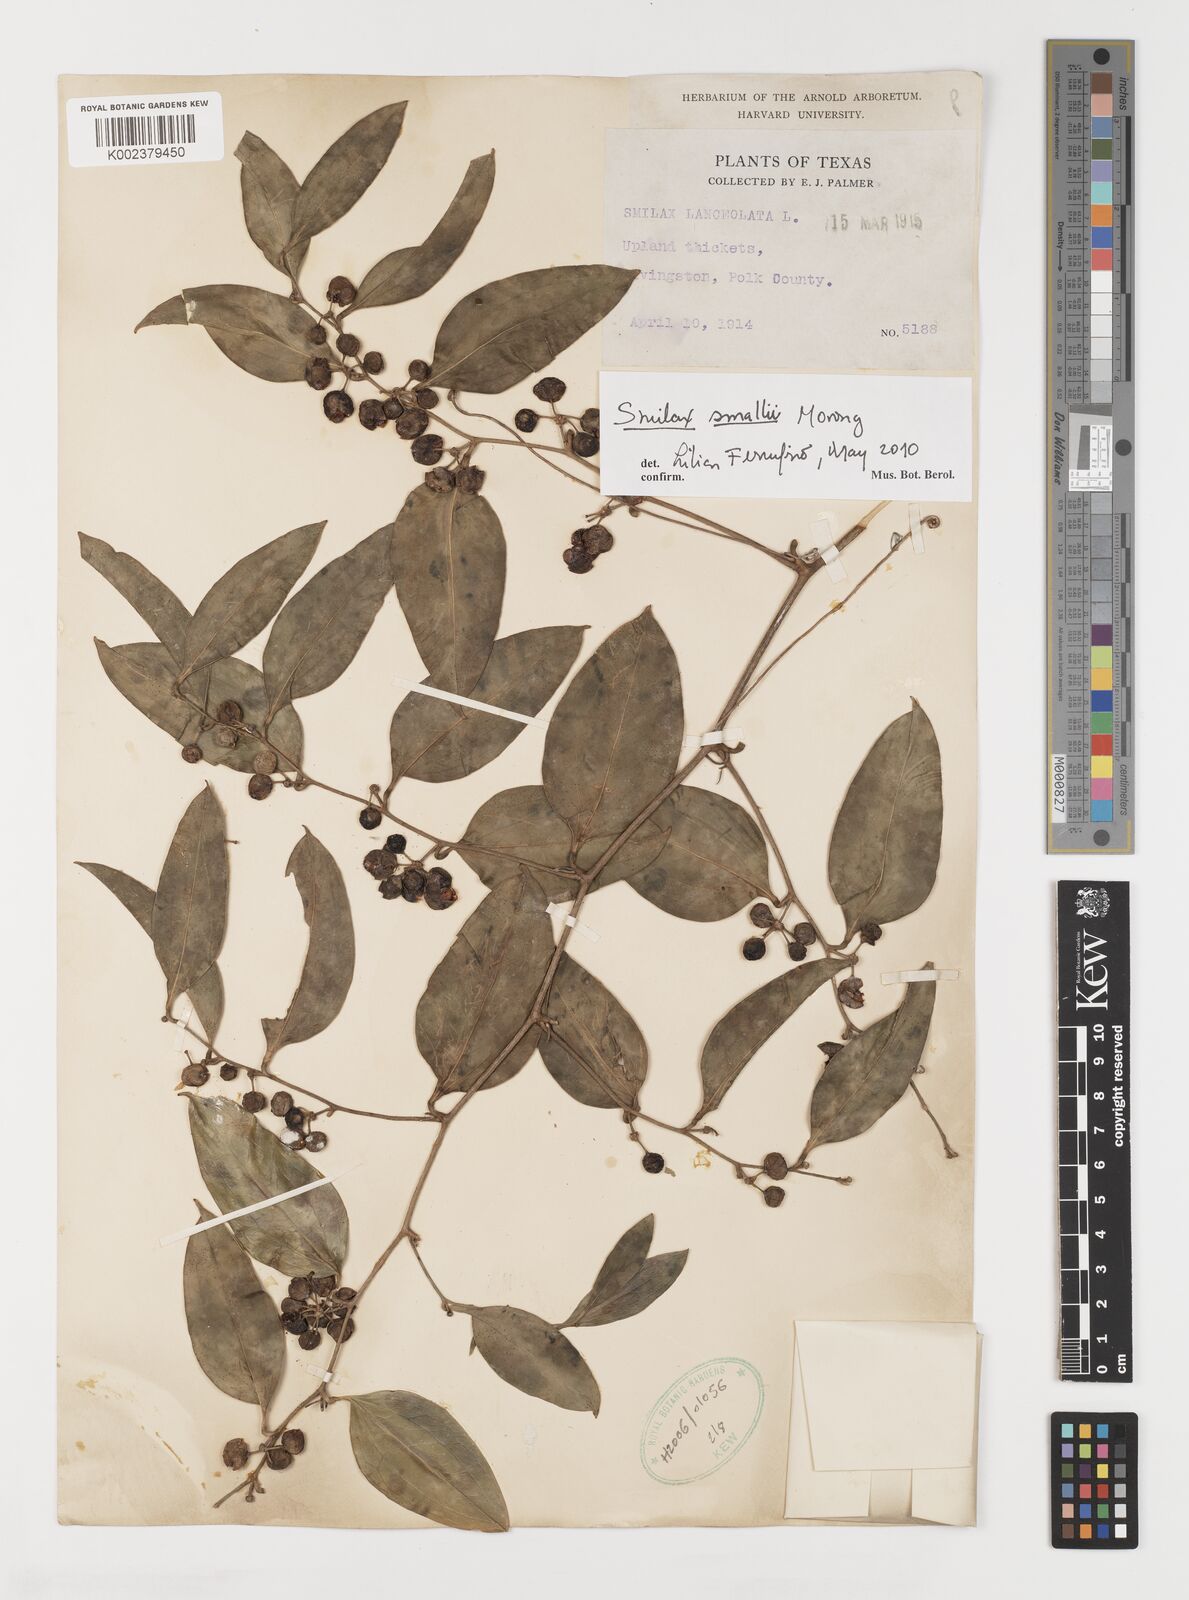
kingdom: Plantae
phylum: Tracheophyta
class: Liliopsida
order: Liliales
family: Smilacaceae
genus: Smilax
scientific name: Smilax maritima
